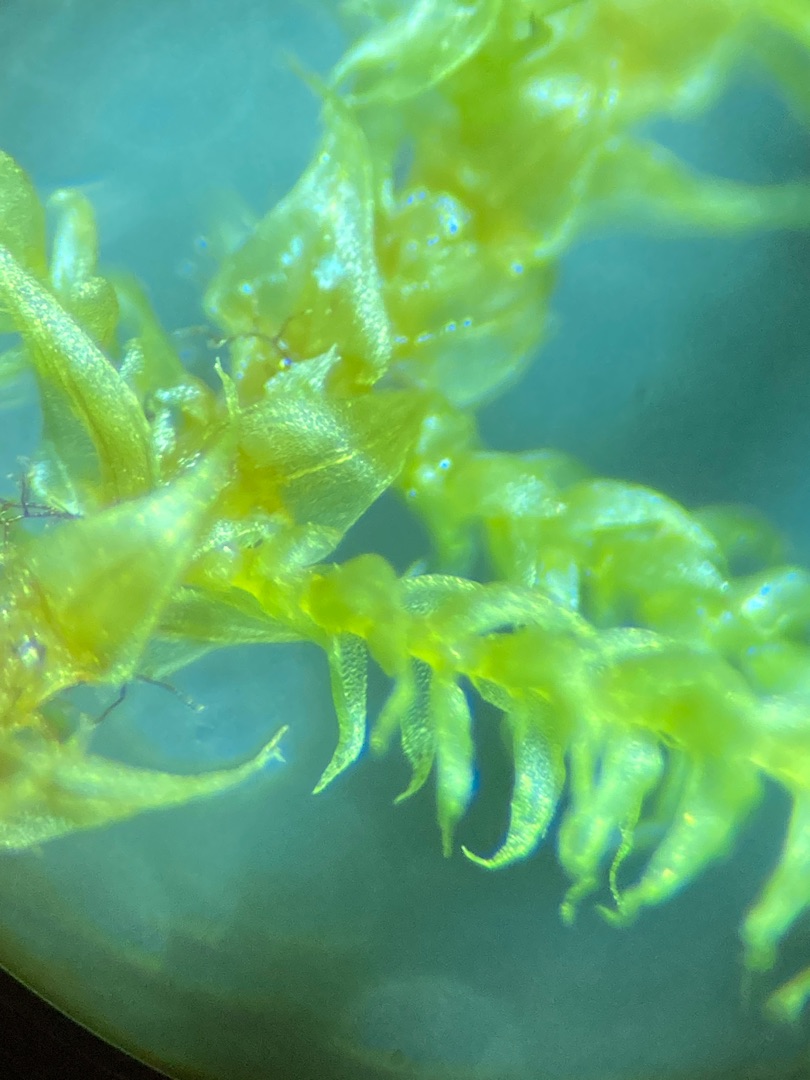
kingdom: Plantae
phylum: Bryophyta
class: Bryopsida
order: Hypnales
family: Amblystegiaceae
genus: Cratoneuron
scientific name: Cratoneuron filicinum
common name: Grøn eremitmos
